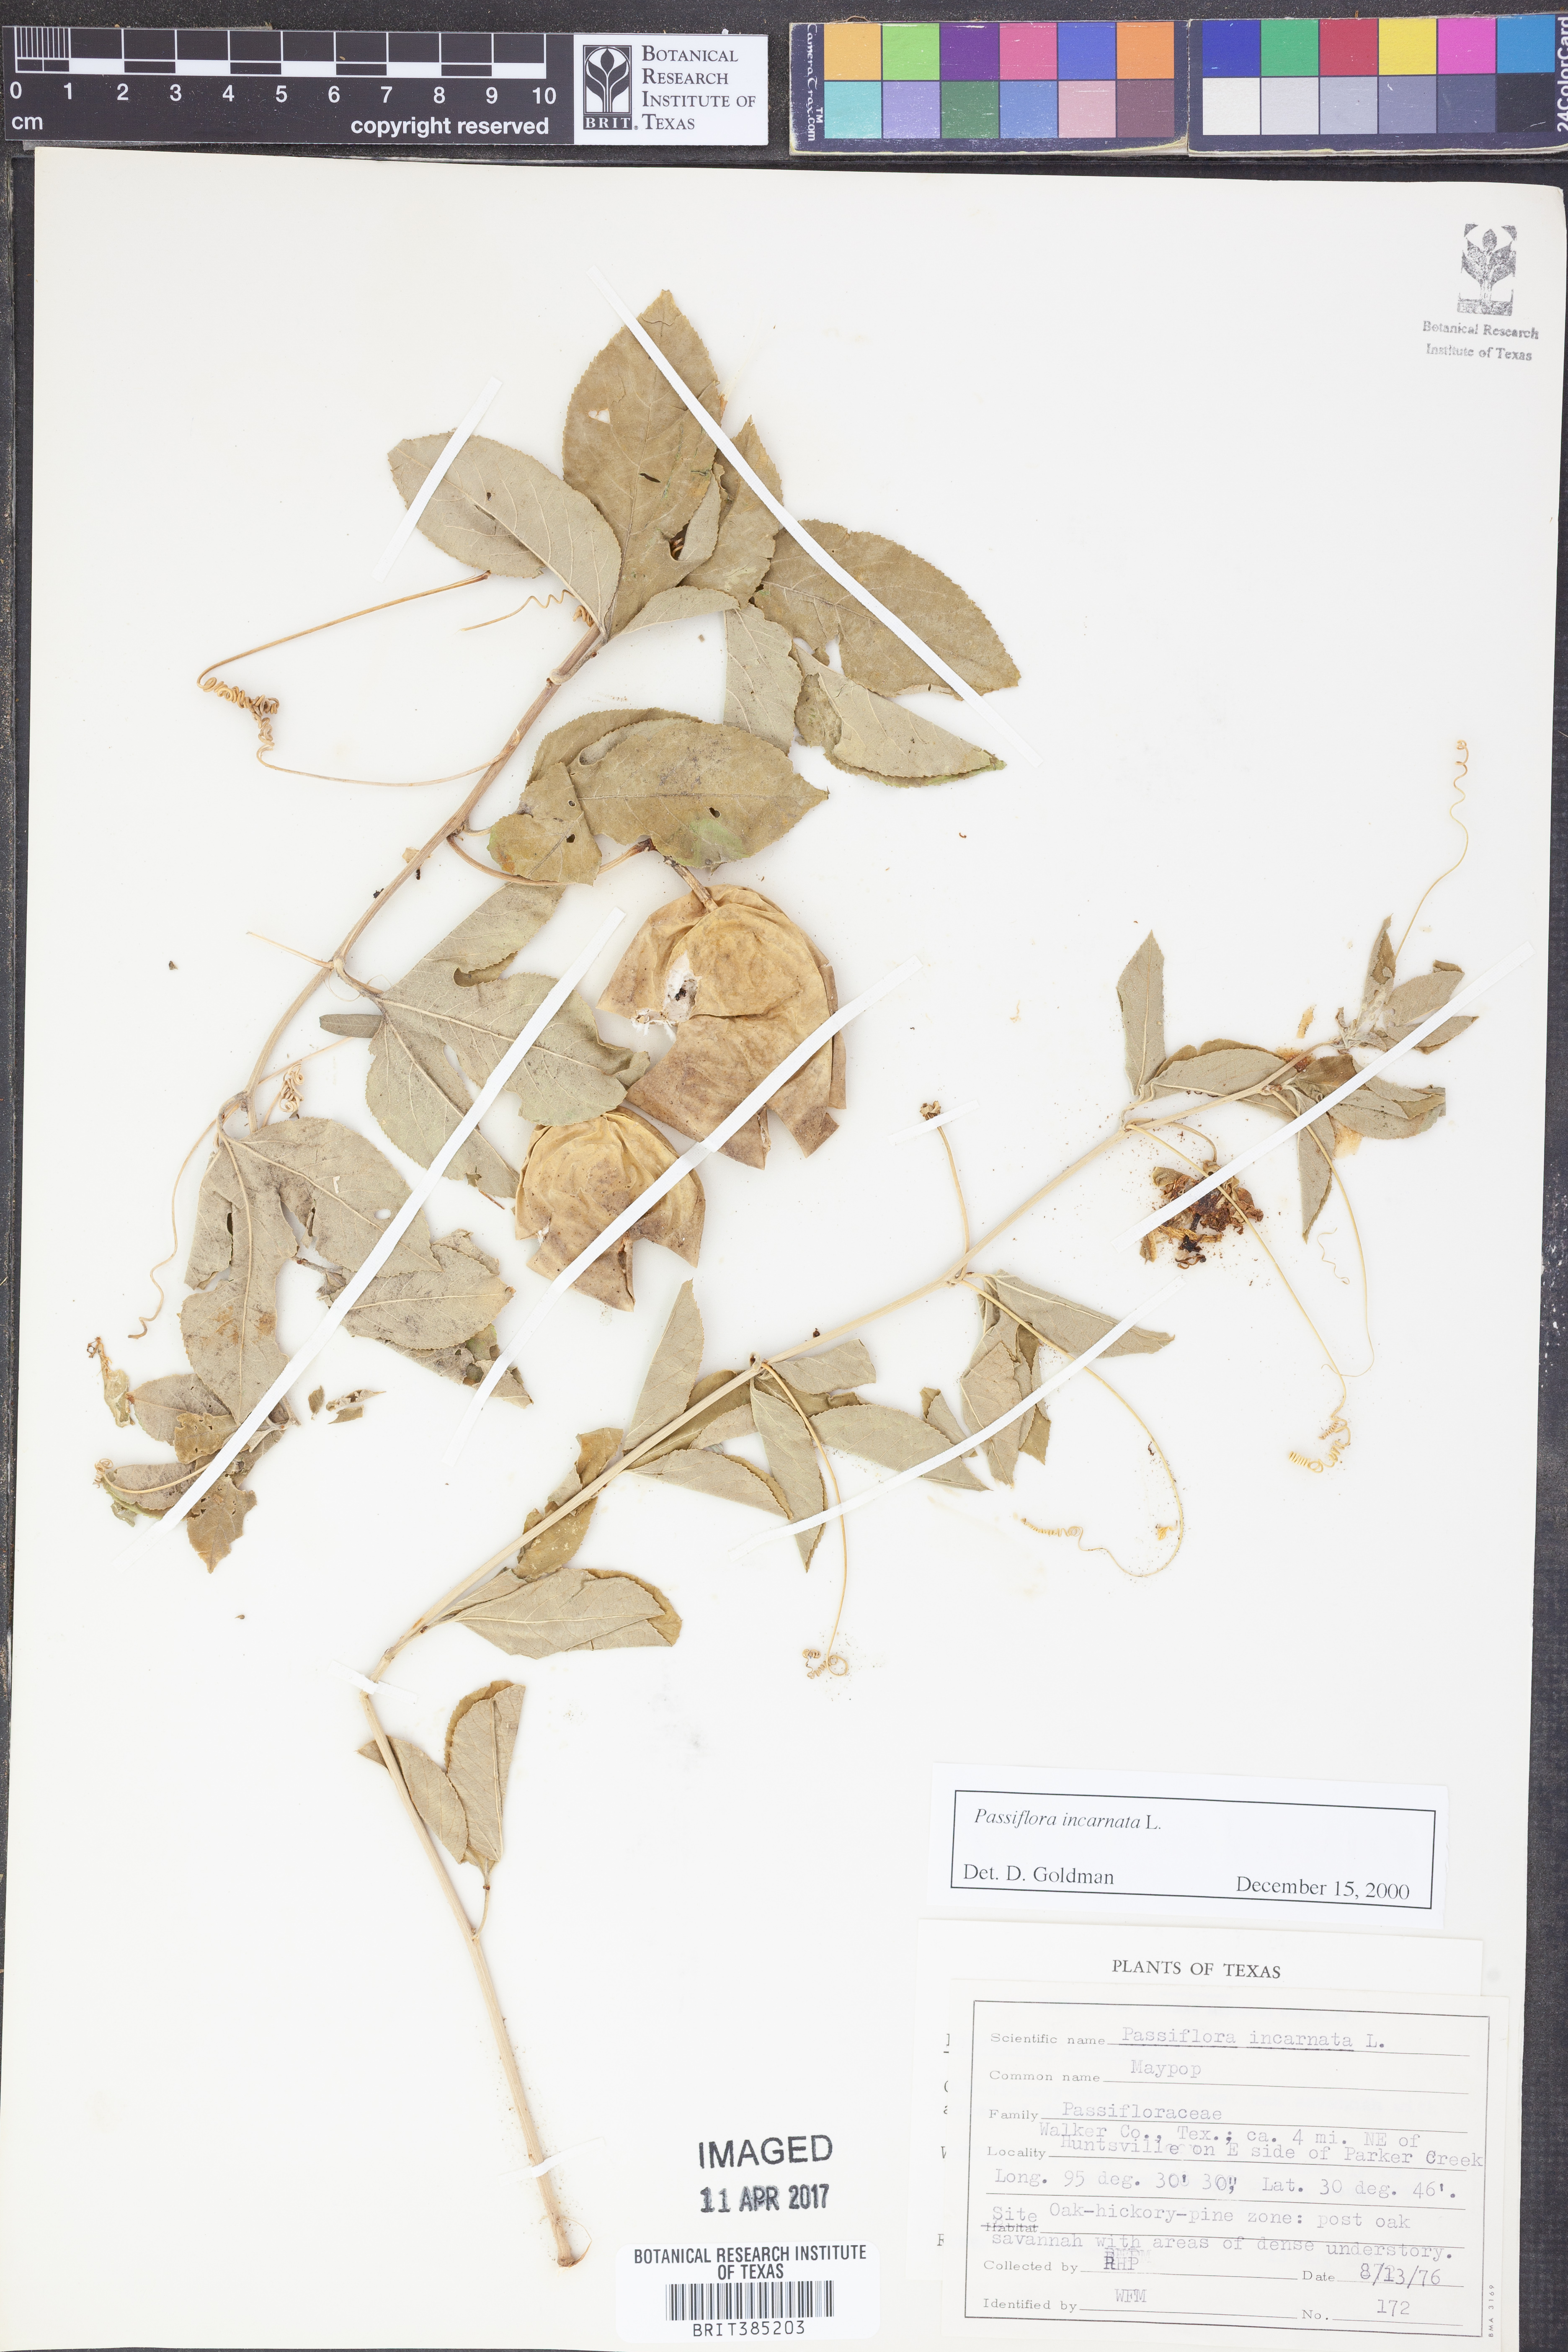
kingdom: Plantae
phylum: Tracheophyta
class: Magnoliopsida
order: Malpighiales
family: Passifloraceae
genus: Passiflora
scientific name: Passiflora incarnata
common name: Apricot-vine
